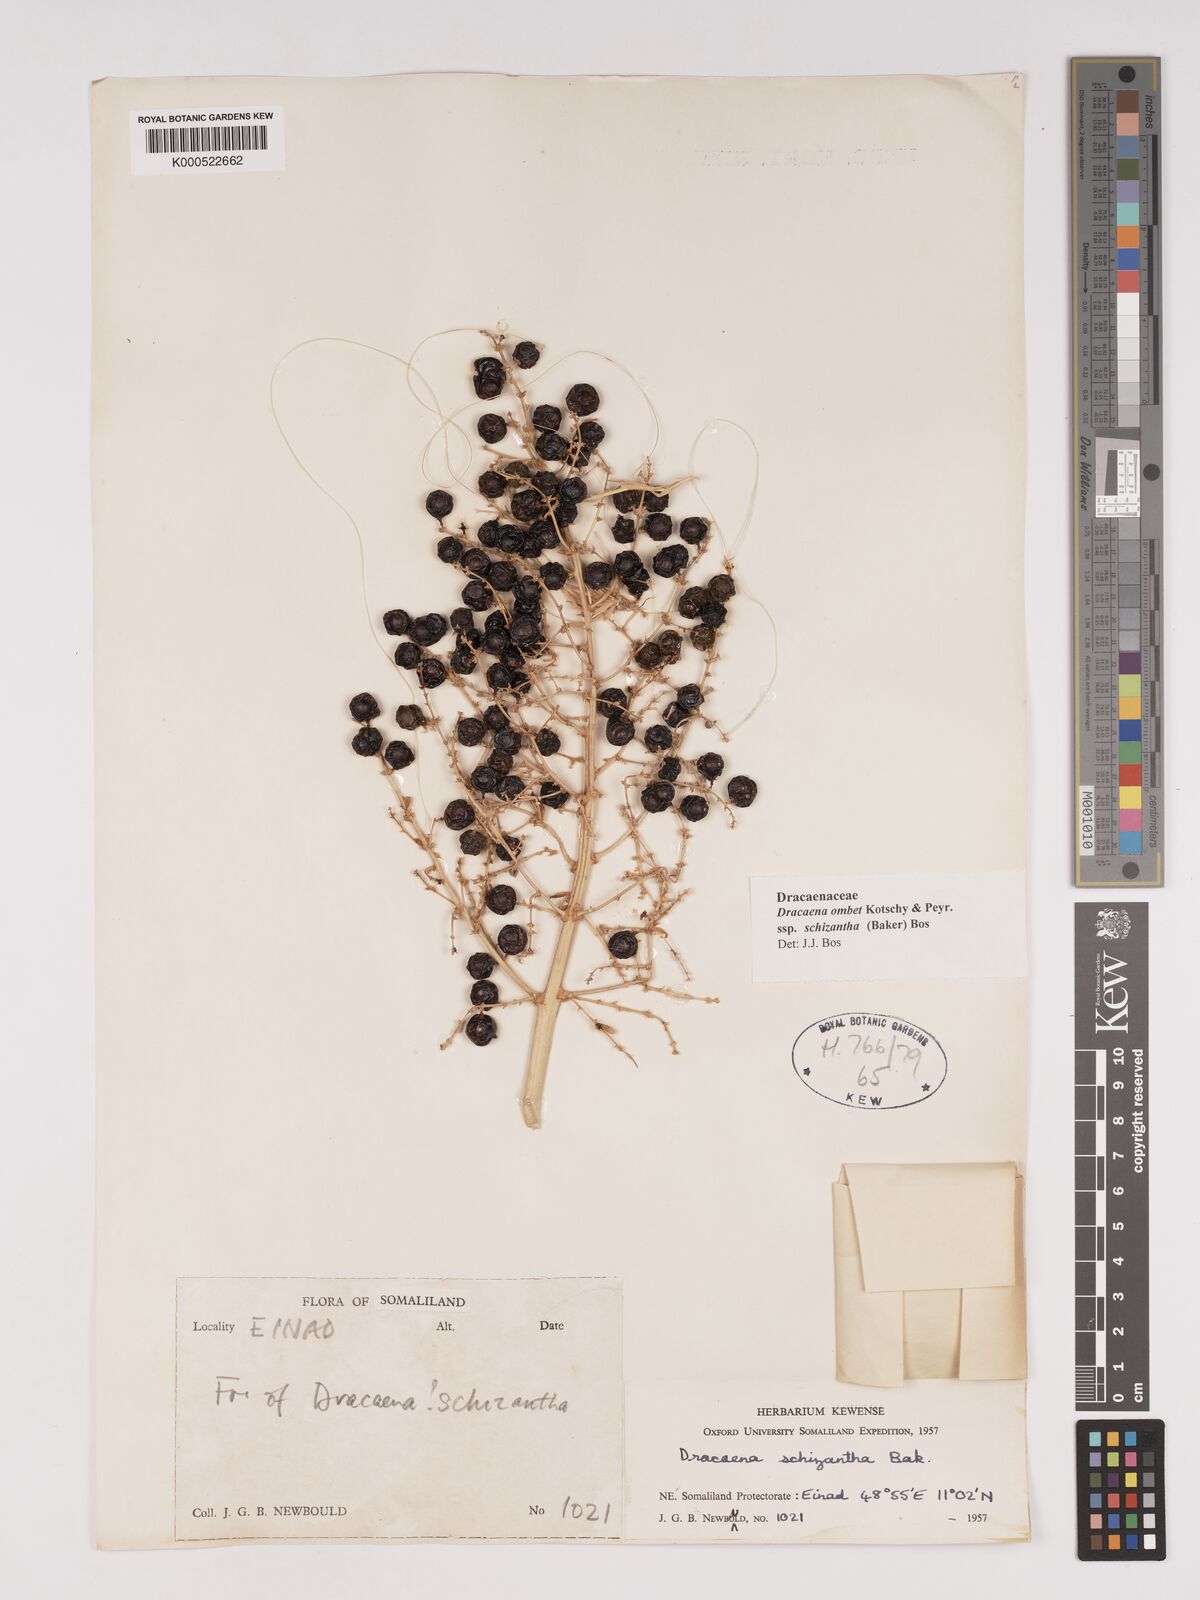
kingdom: Plantae
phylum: Tracheophyta
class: Liliopsida
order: Asparagales
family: Asparagaceae
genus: Dracaena
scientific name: Dracaena ombet
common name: Gabal elba dragon tree
